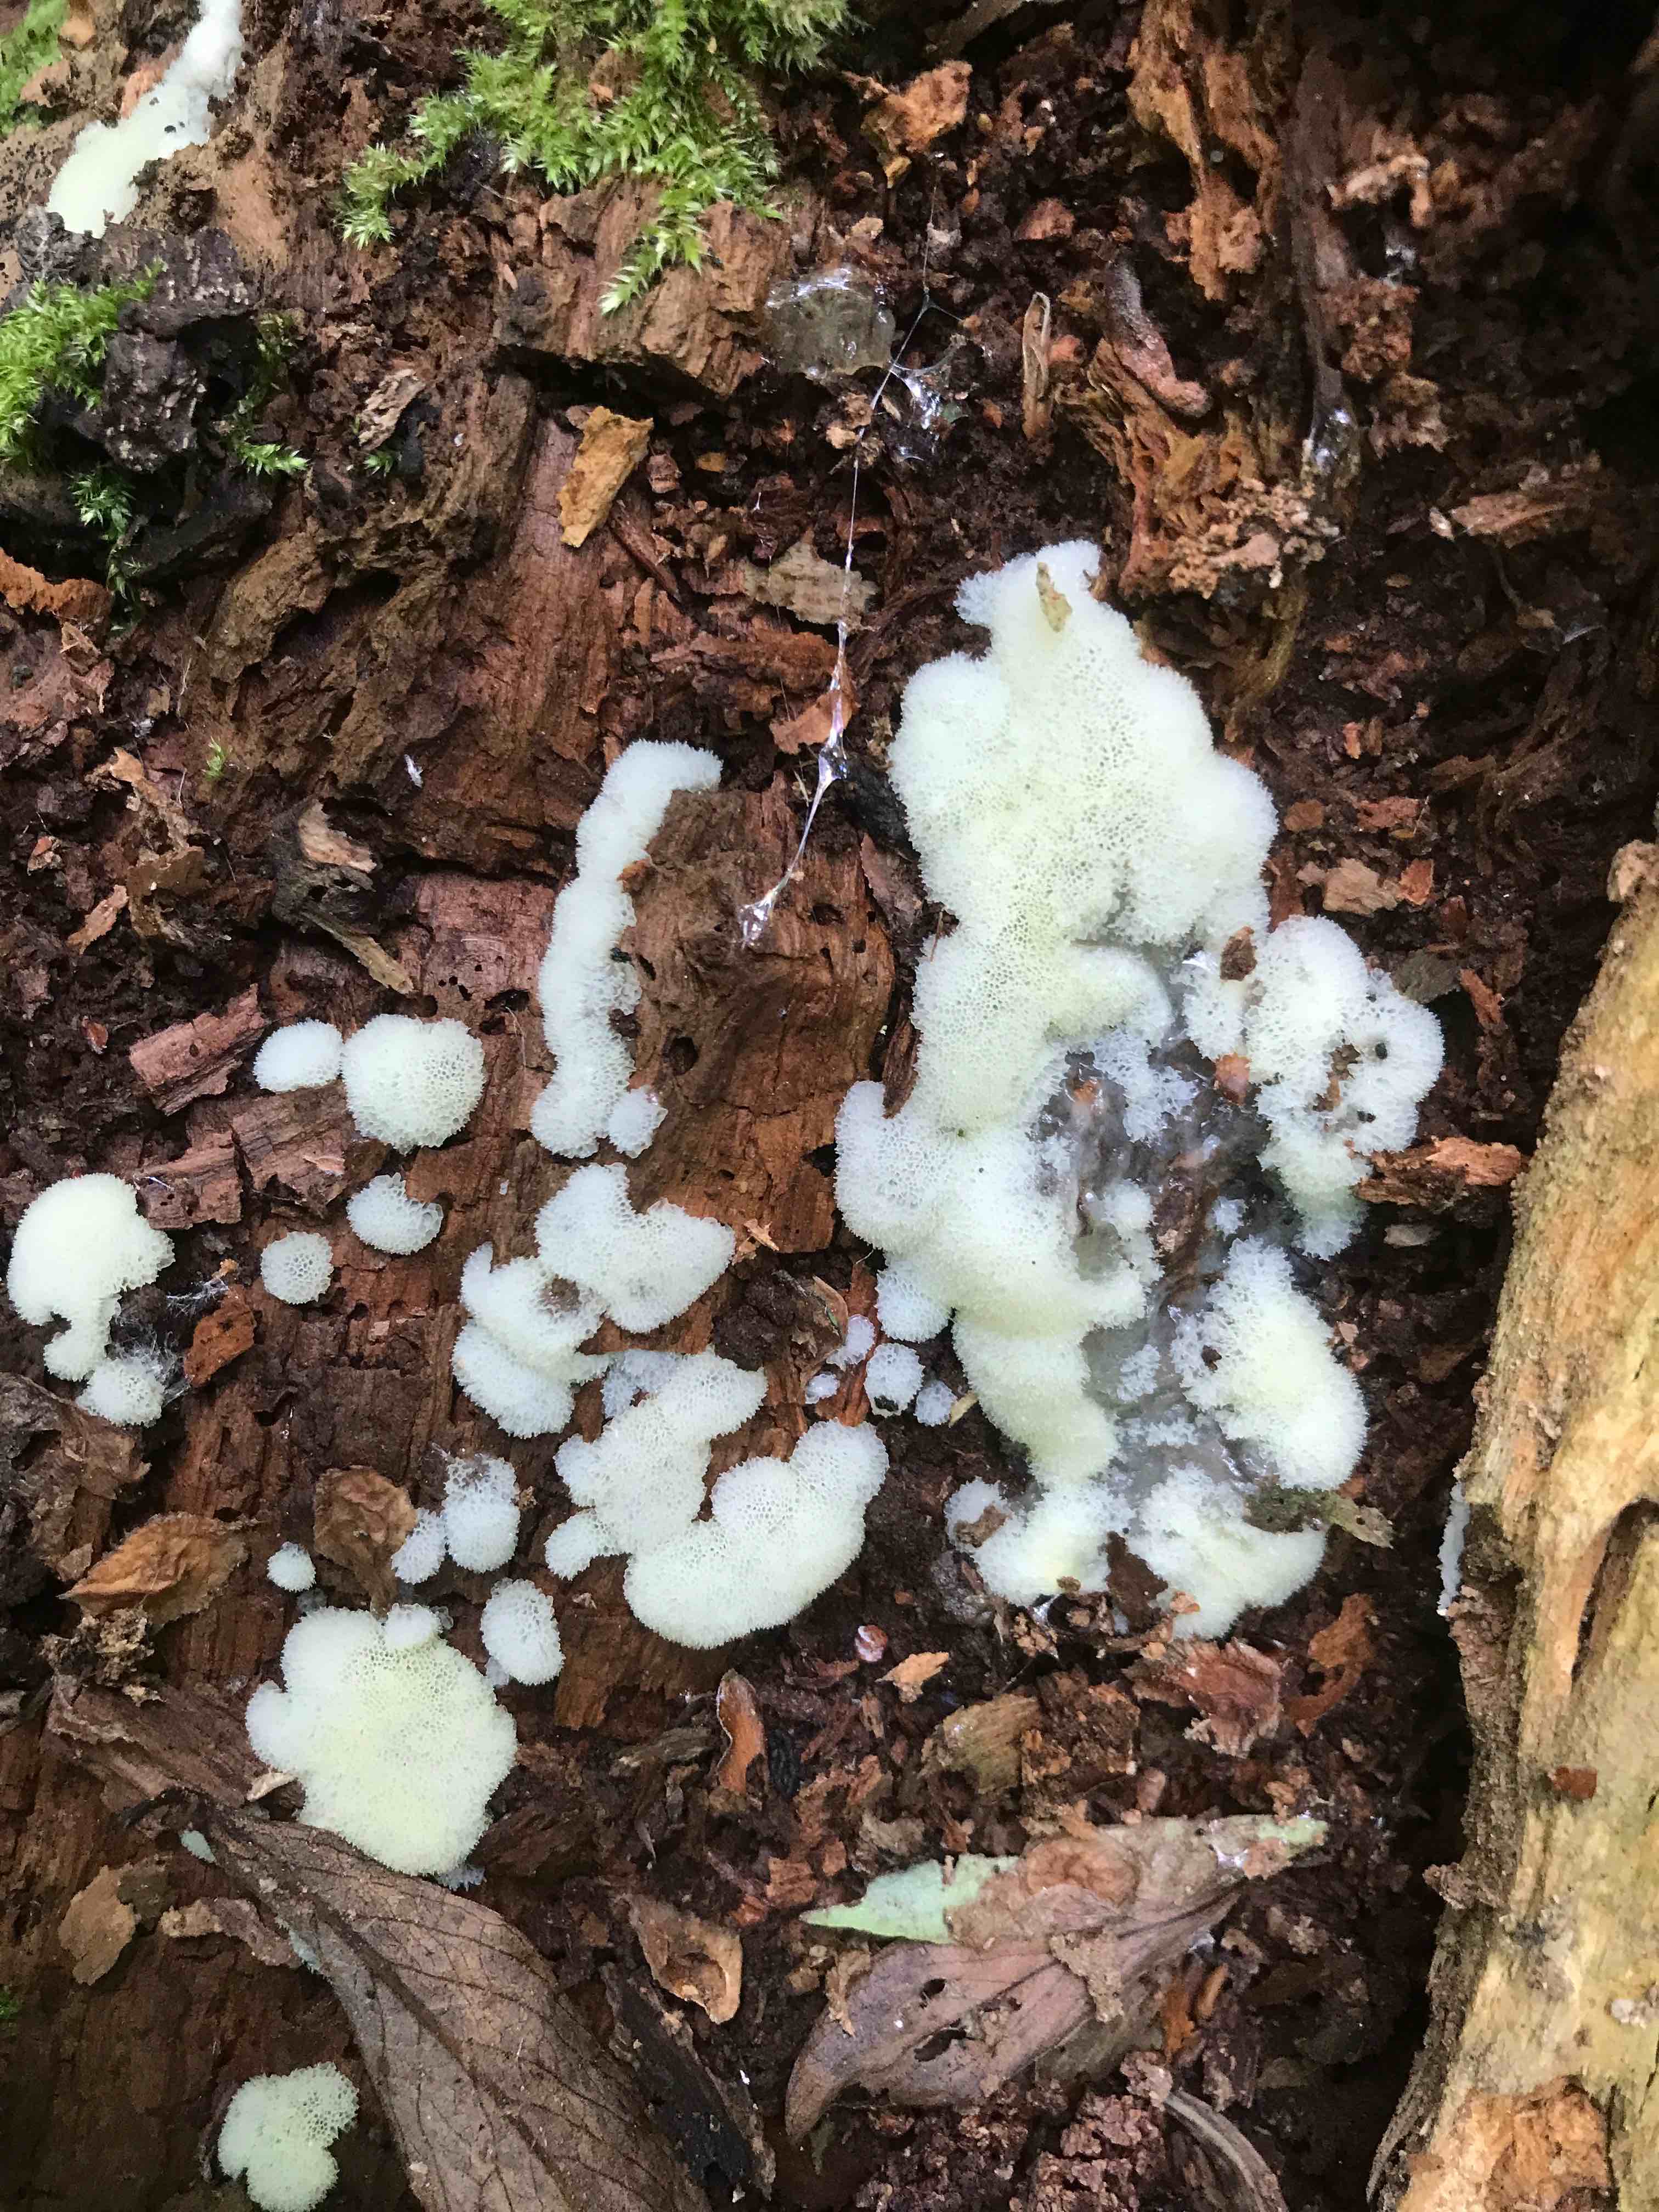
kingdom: Protozoa
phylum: Mycetozoa
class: Protosteliomycetes
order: Ceratiomyxales
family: Ceratiomyxaceae
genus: Ceratiomyxa
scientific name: Ceratiomyxa fruticulosa
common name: Honeycomb coral slime mold
